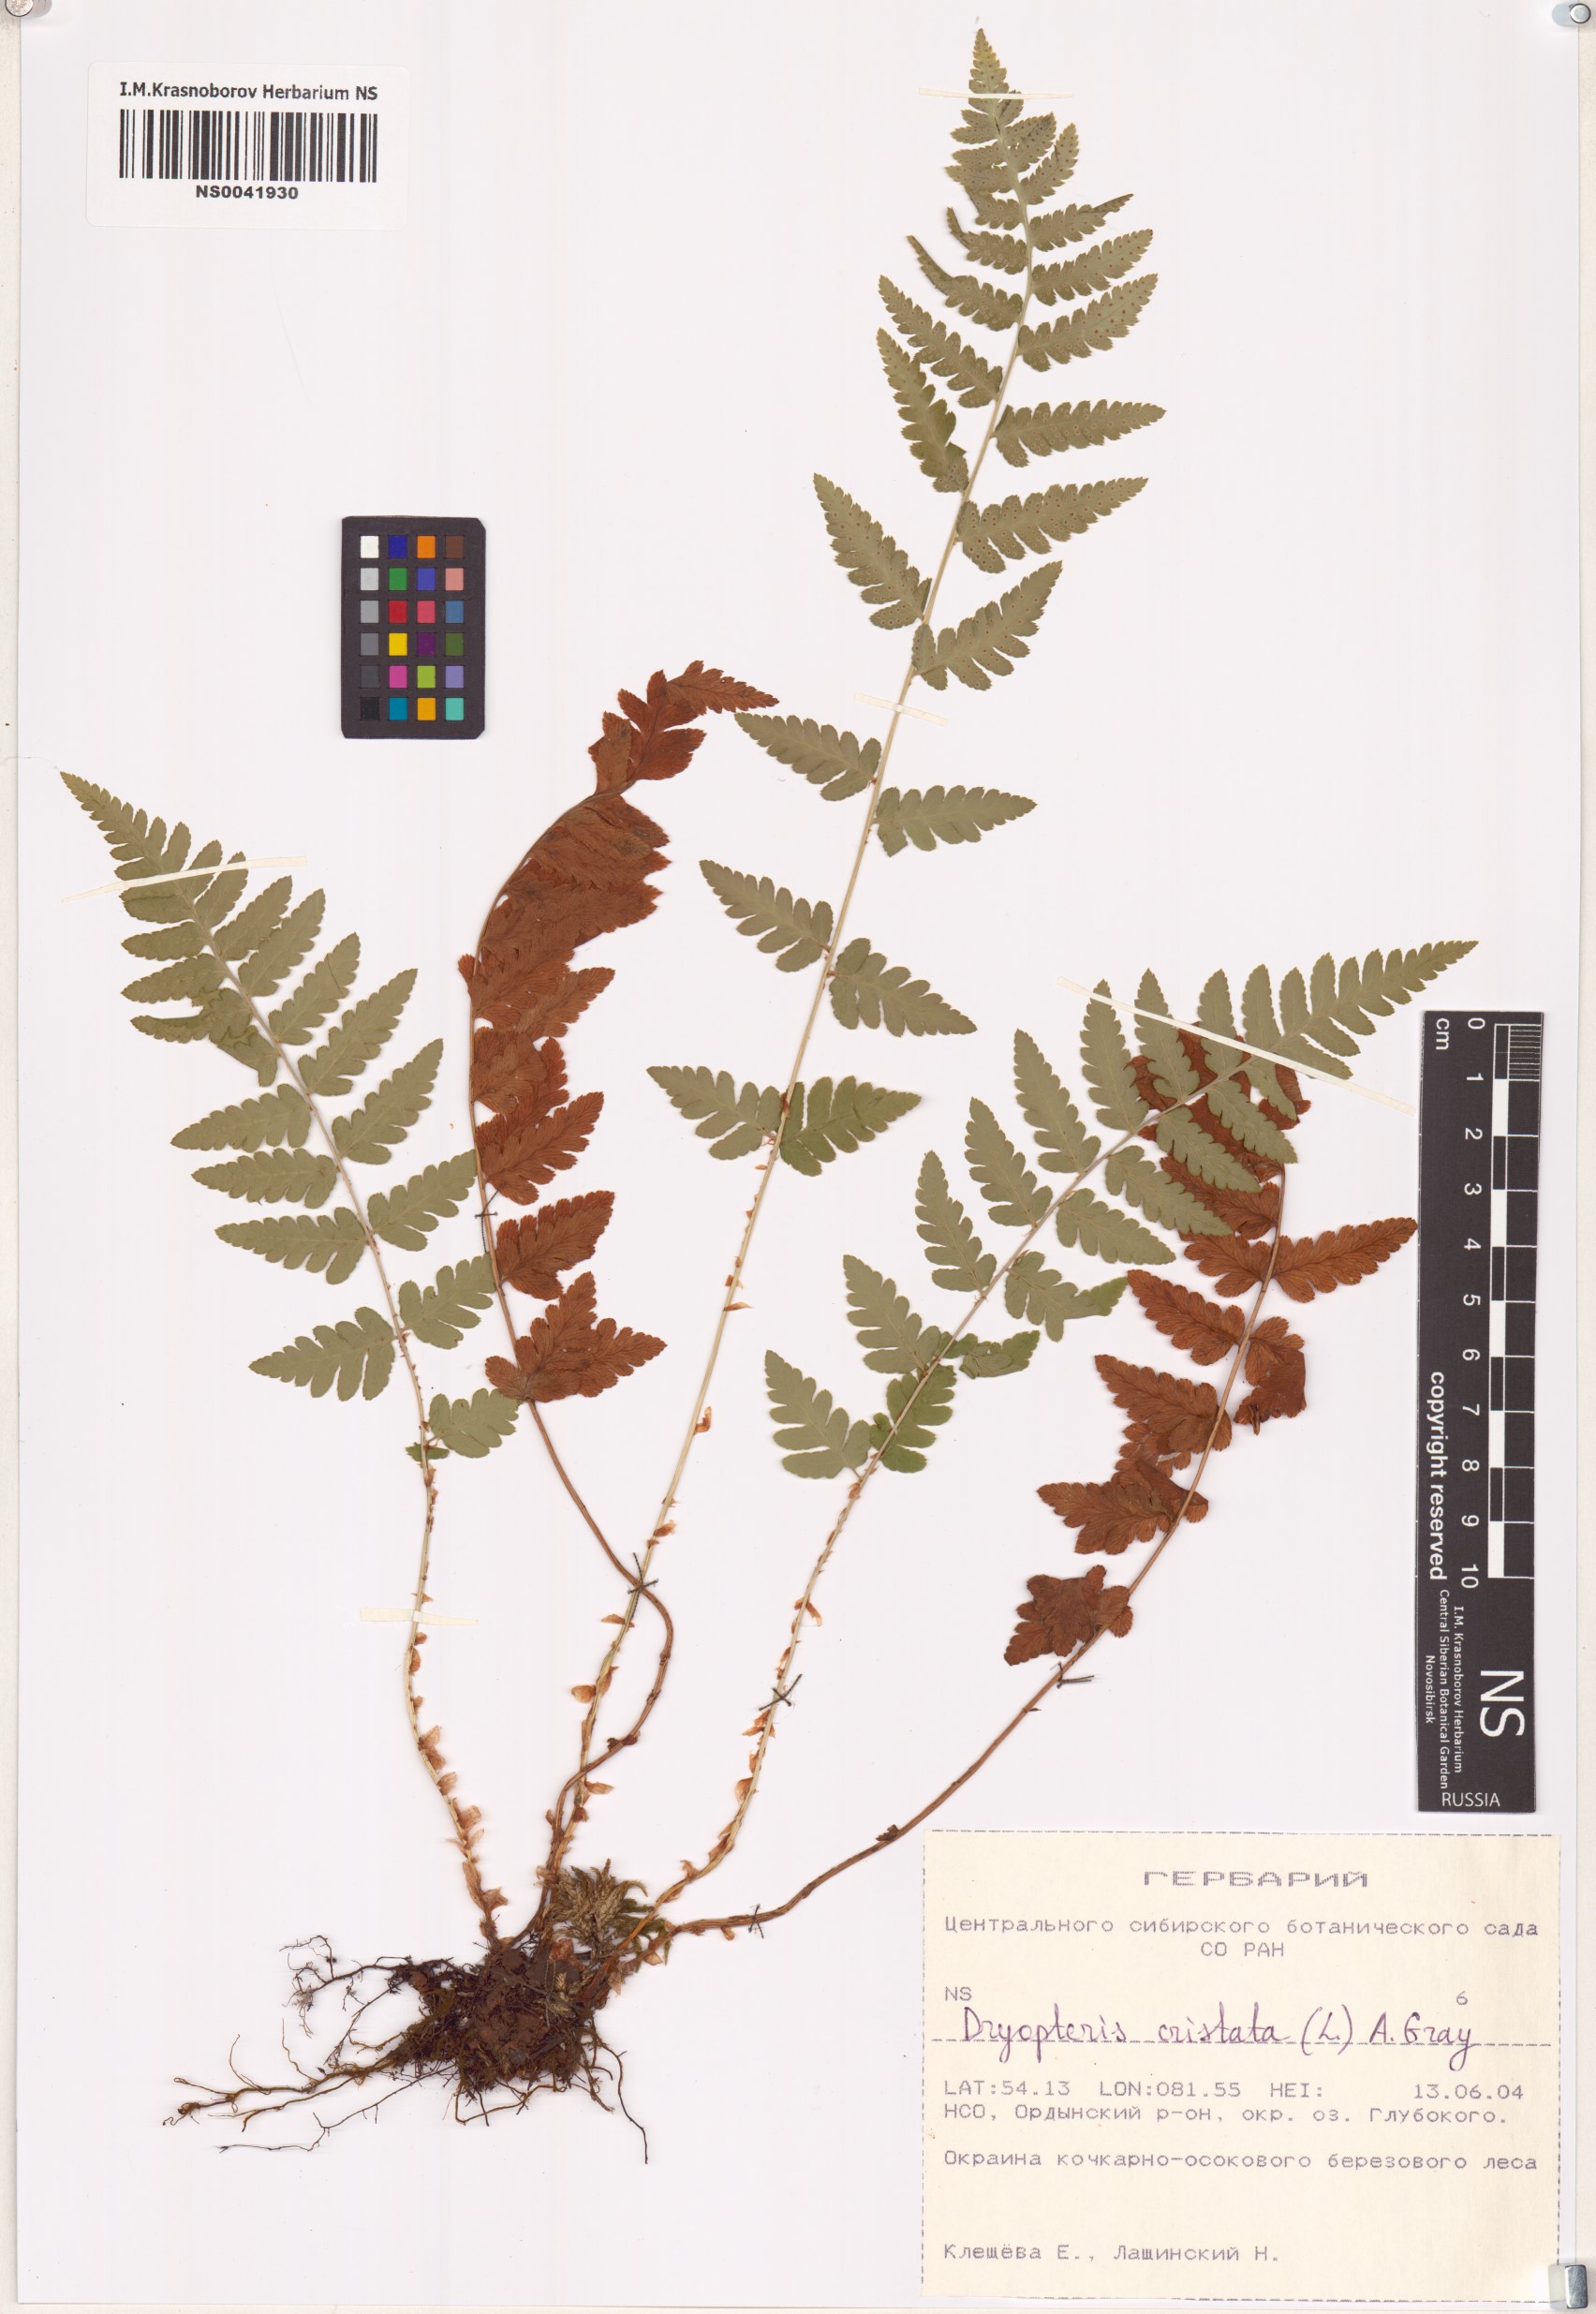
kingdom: Plantae
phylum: Tracheophyta
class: Polypodiopsida
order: Polypodiales
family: Dryopteridaceae
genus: Dryopteris
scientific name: Dryopteris cristata
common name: Crested wood fern
